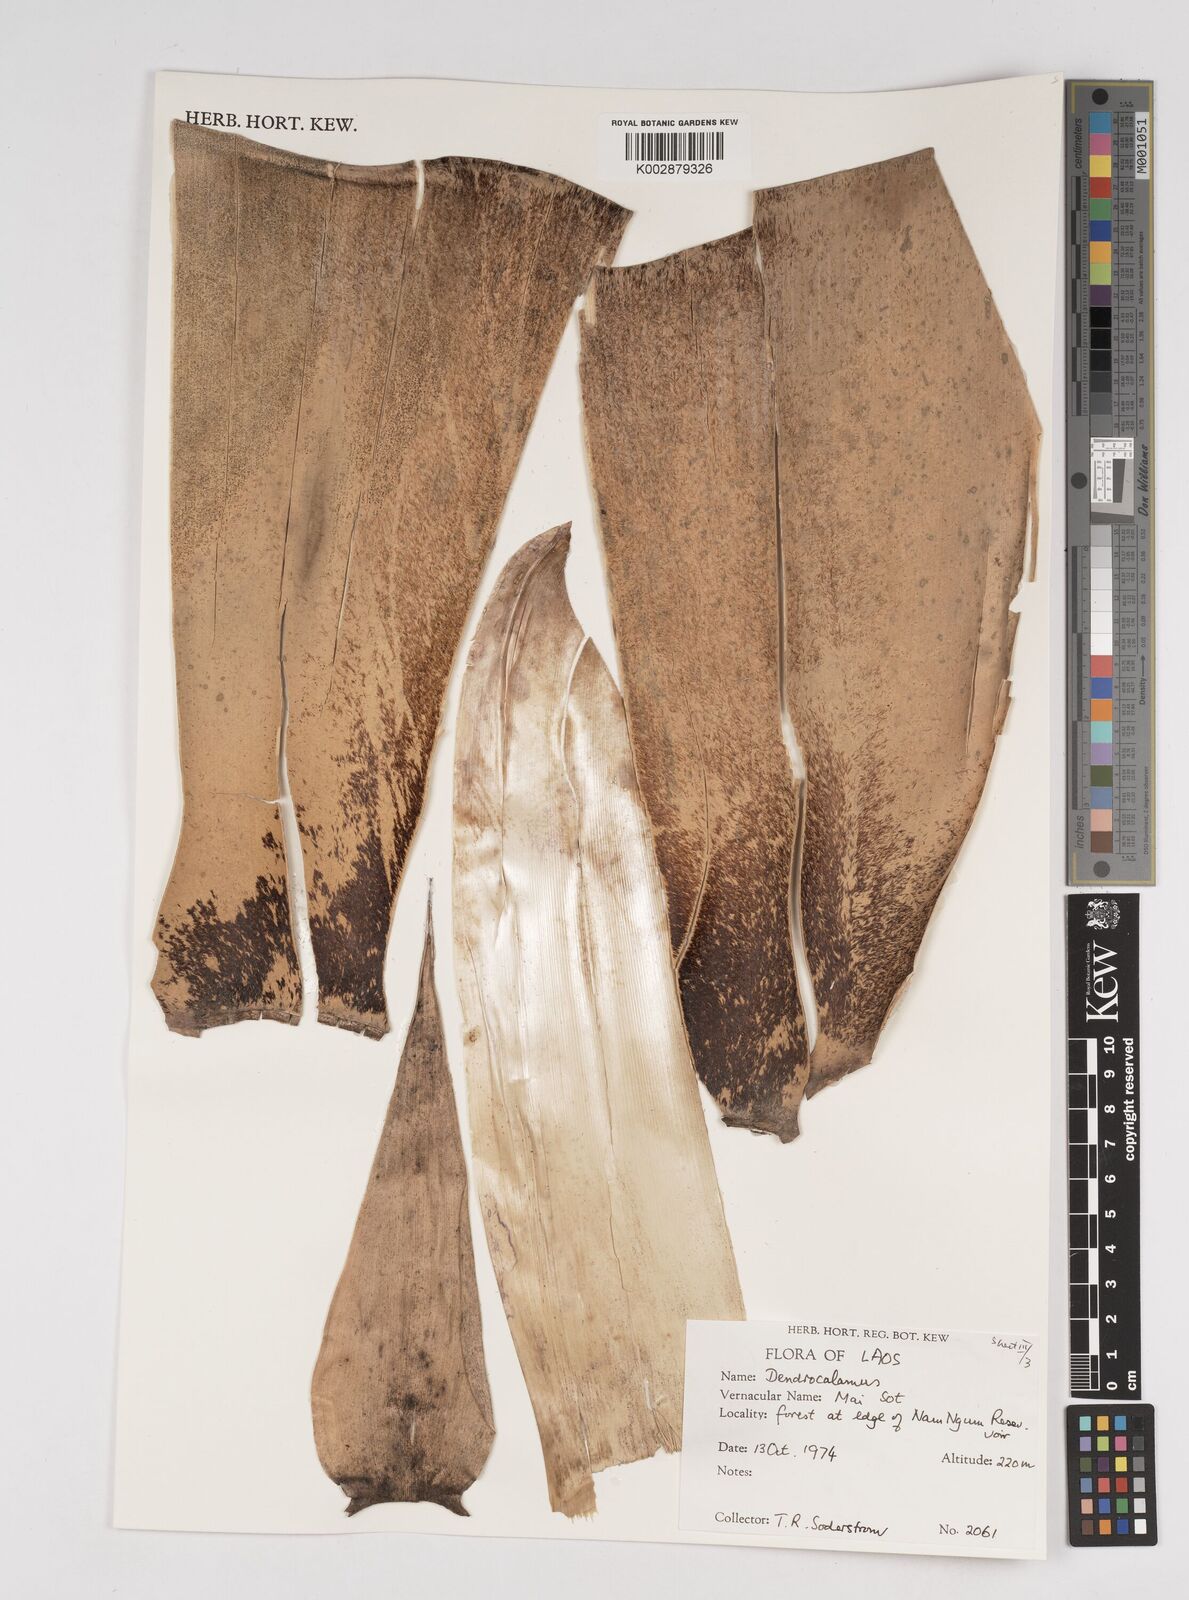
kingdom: Plantae
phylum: Tracheophyta
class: Liliopsida
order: Poales
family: Poaceae
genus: Dendrocalamus
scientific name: Dendrocalamus
